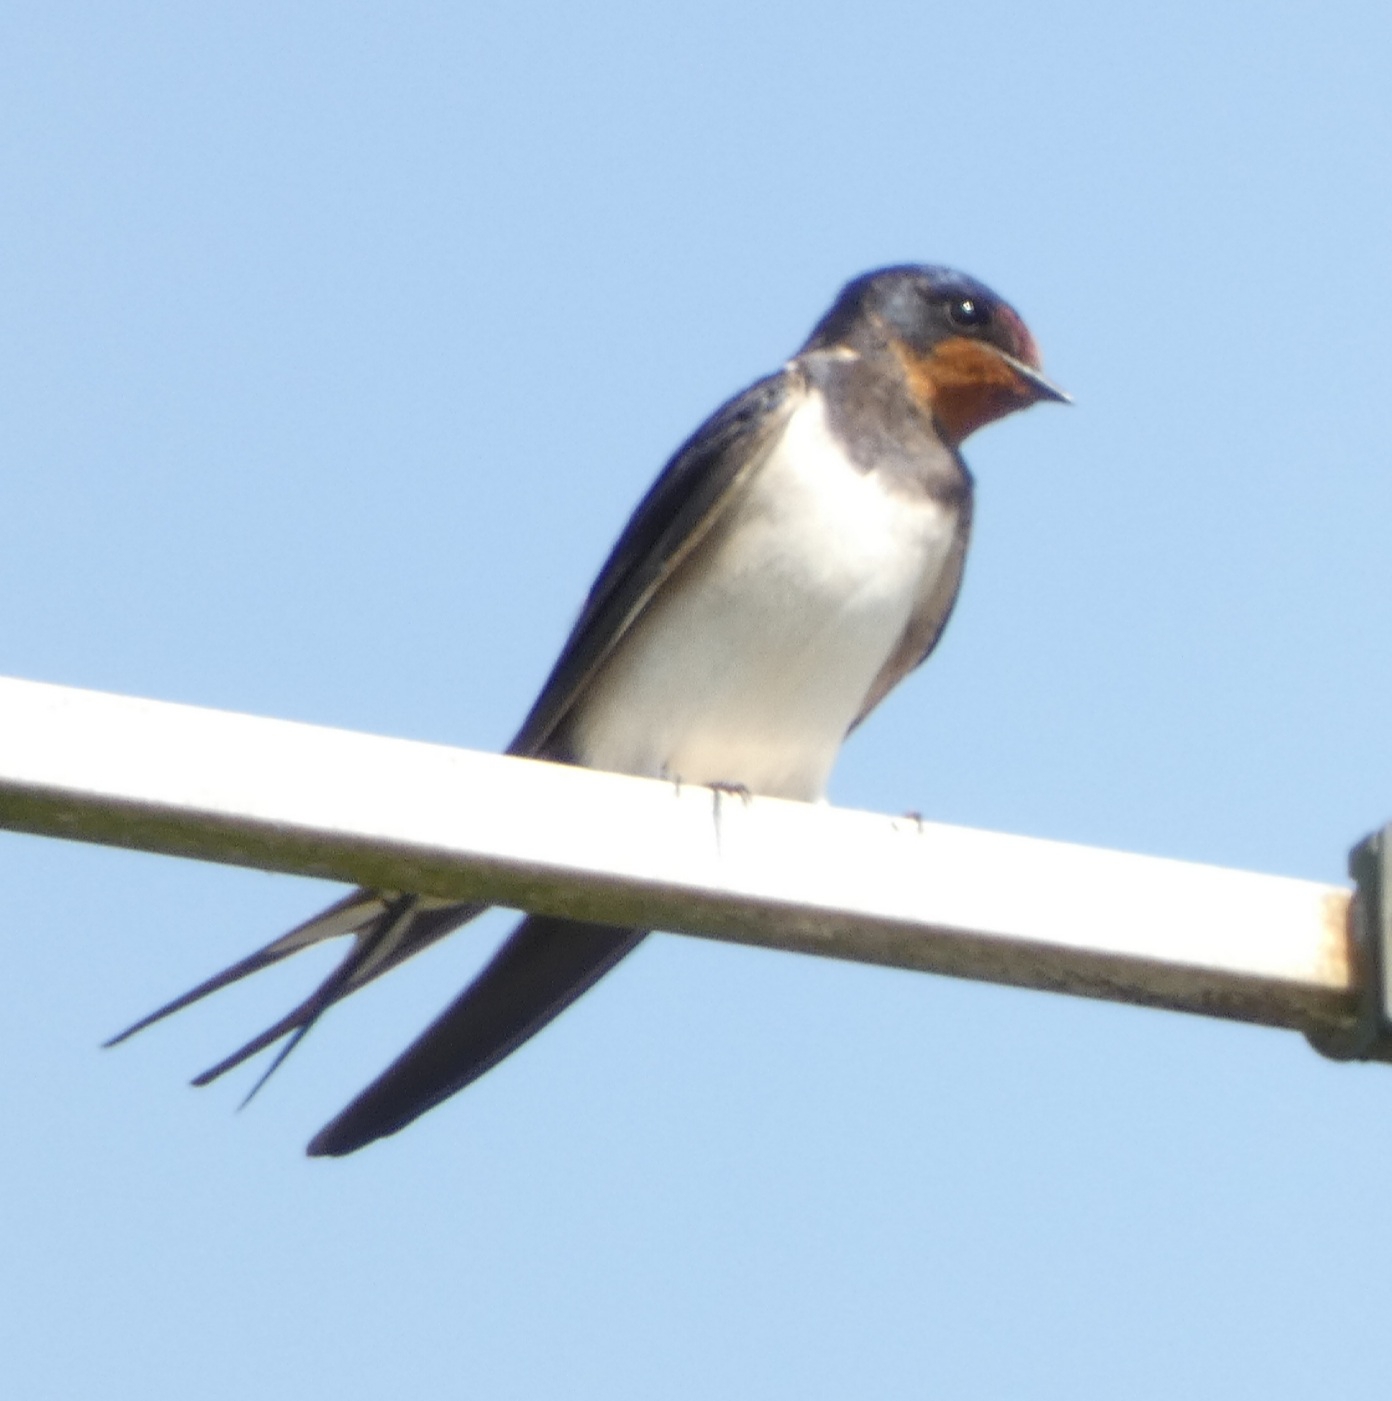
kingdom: Animalia
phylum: Chordata
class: Aves
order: Passeriformes
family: Hirundinidae
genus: Hirundo
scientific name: Hirundo rustica
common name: Landsvale
